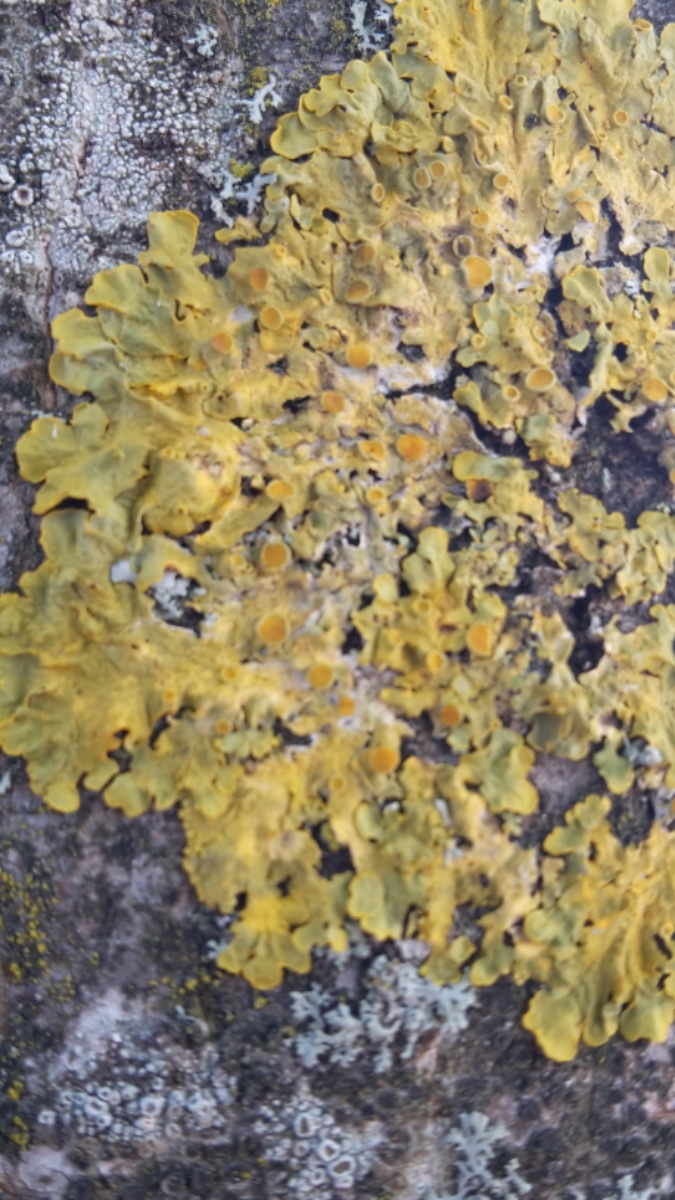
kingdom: Fungi
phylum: Ascomycota
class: Lecanoromycetes
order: Teloschistales
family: Teloschistaceae
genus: Xanthoria
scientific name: Xanthoria parietina
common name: almindelig væggelav
